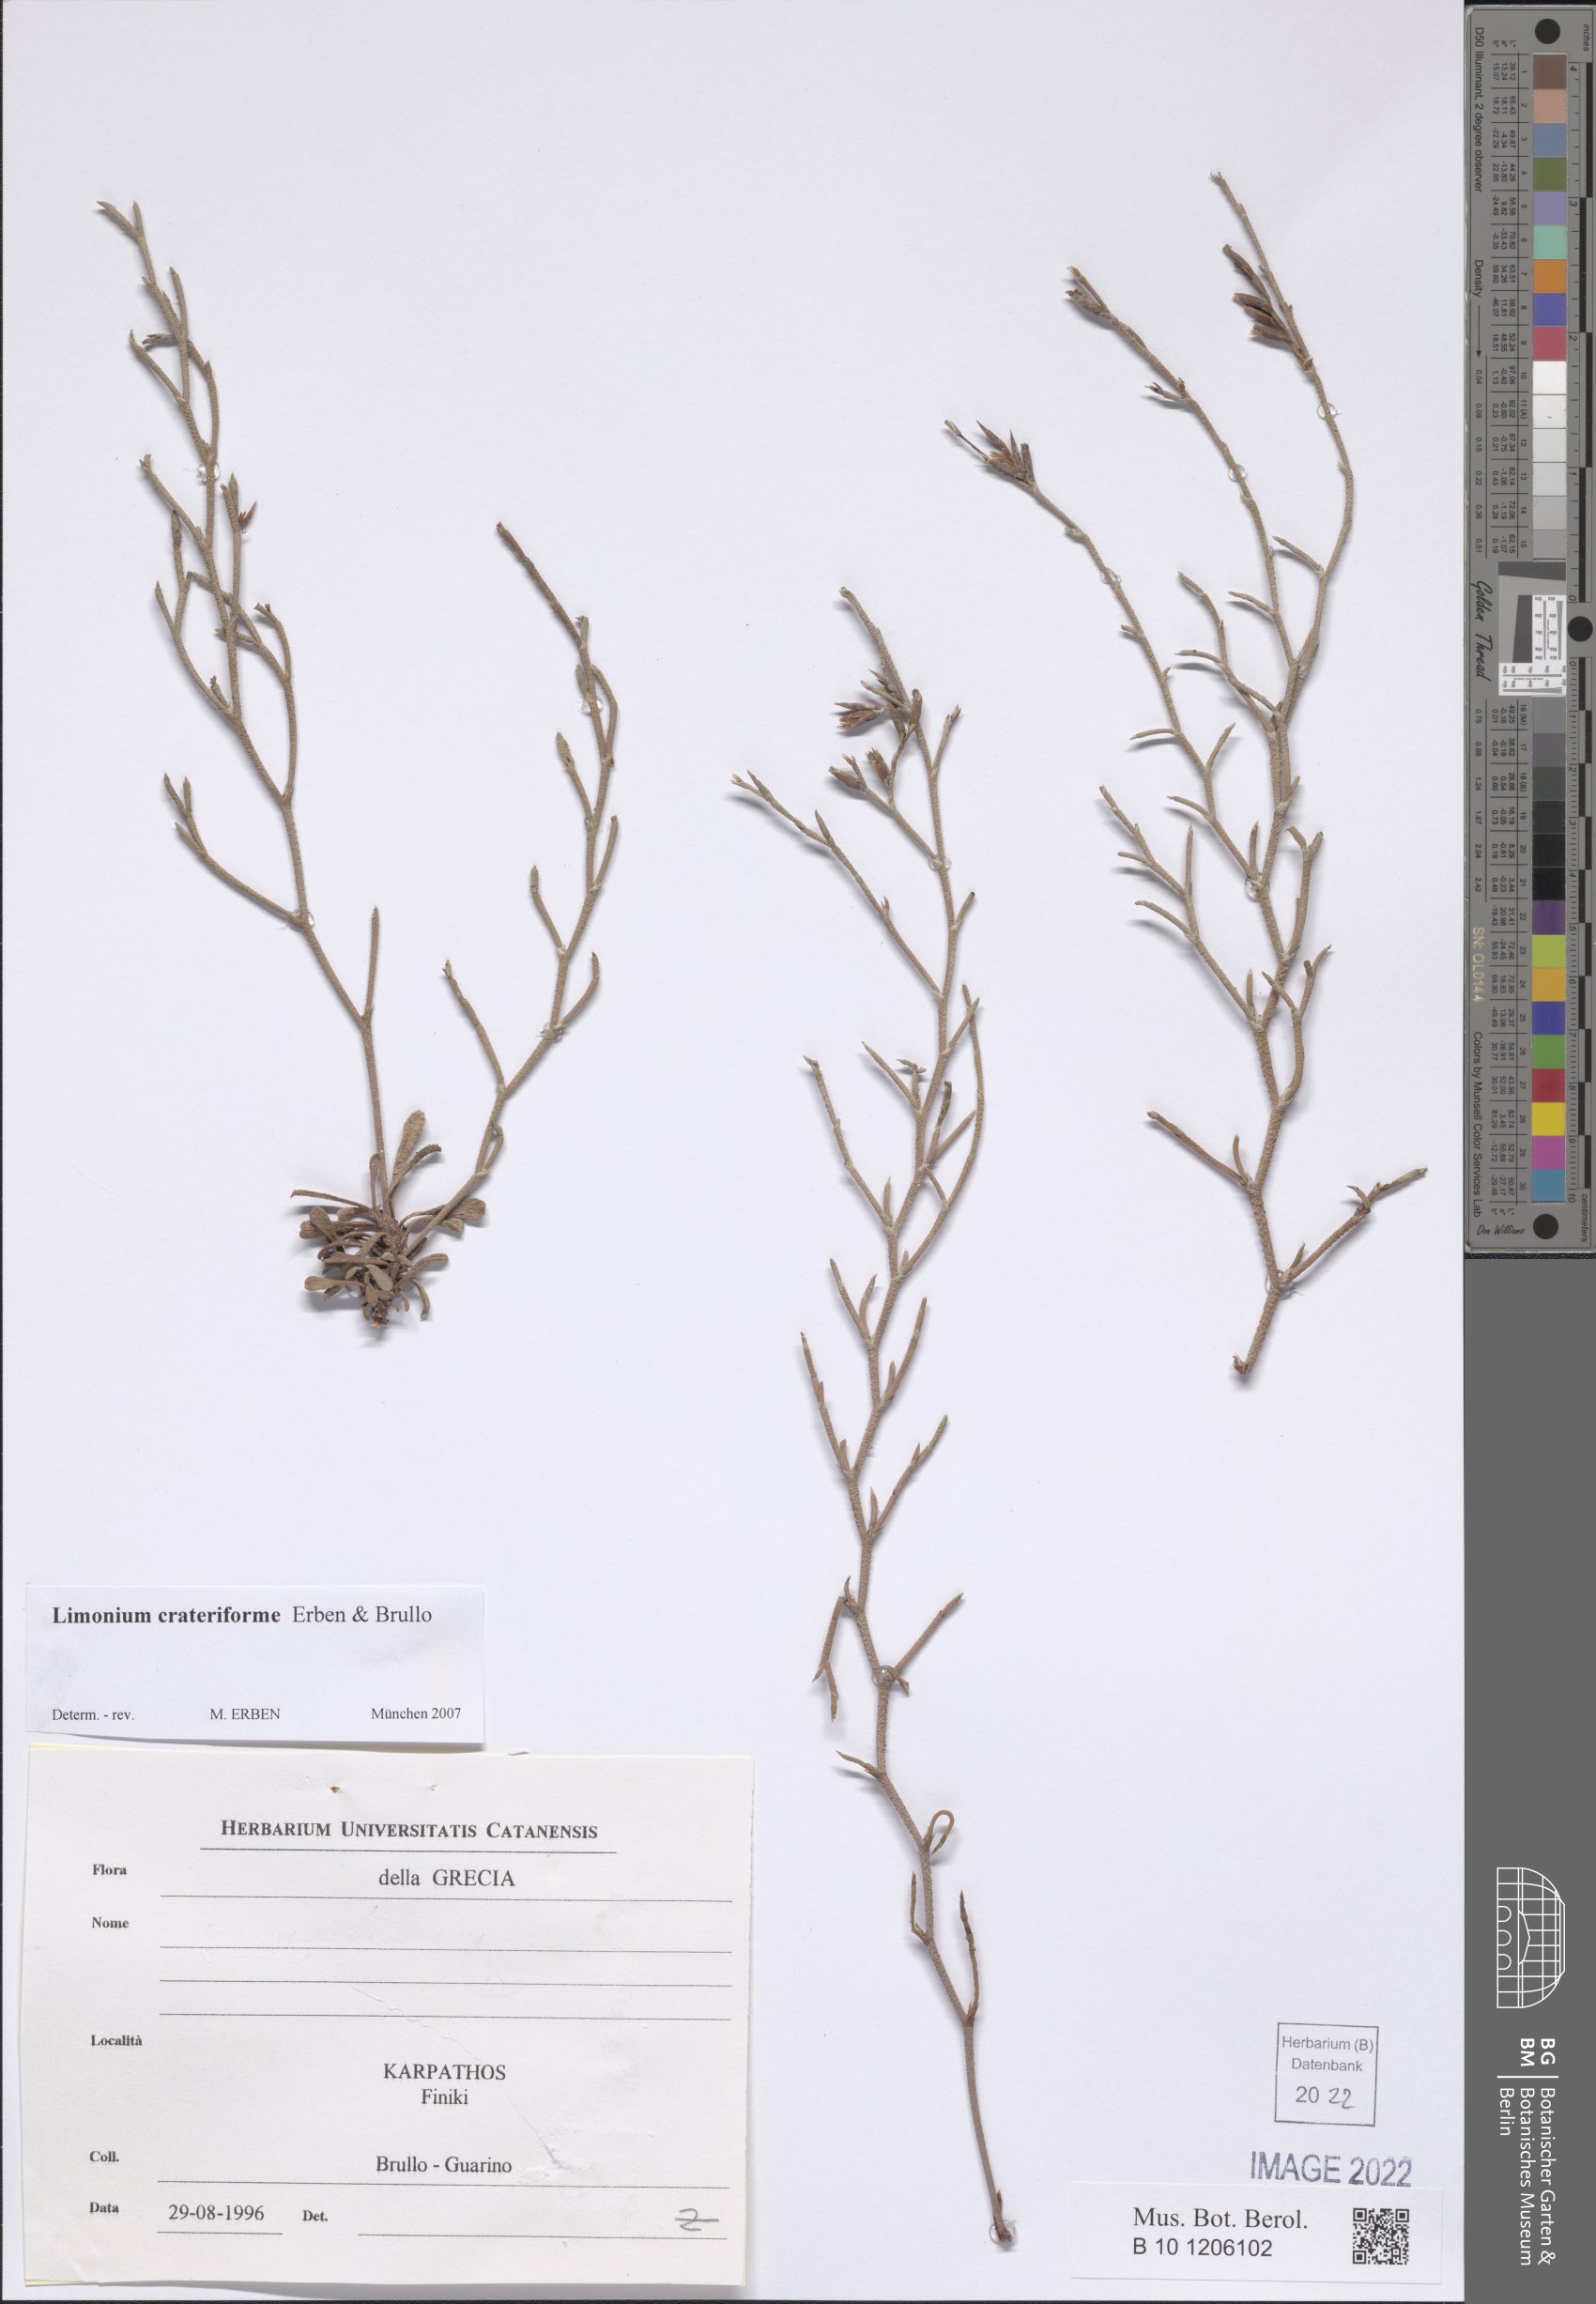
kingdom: Plantae
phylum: Tracheophyta
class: Magnoliopsida
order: Caryophyllales
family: Plumbaginaceae
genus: Limonium
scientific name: Limonium crateriforme
